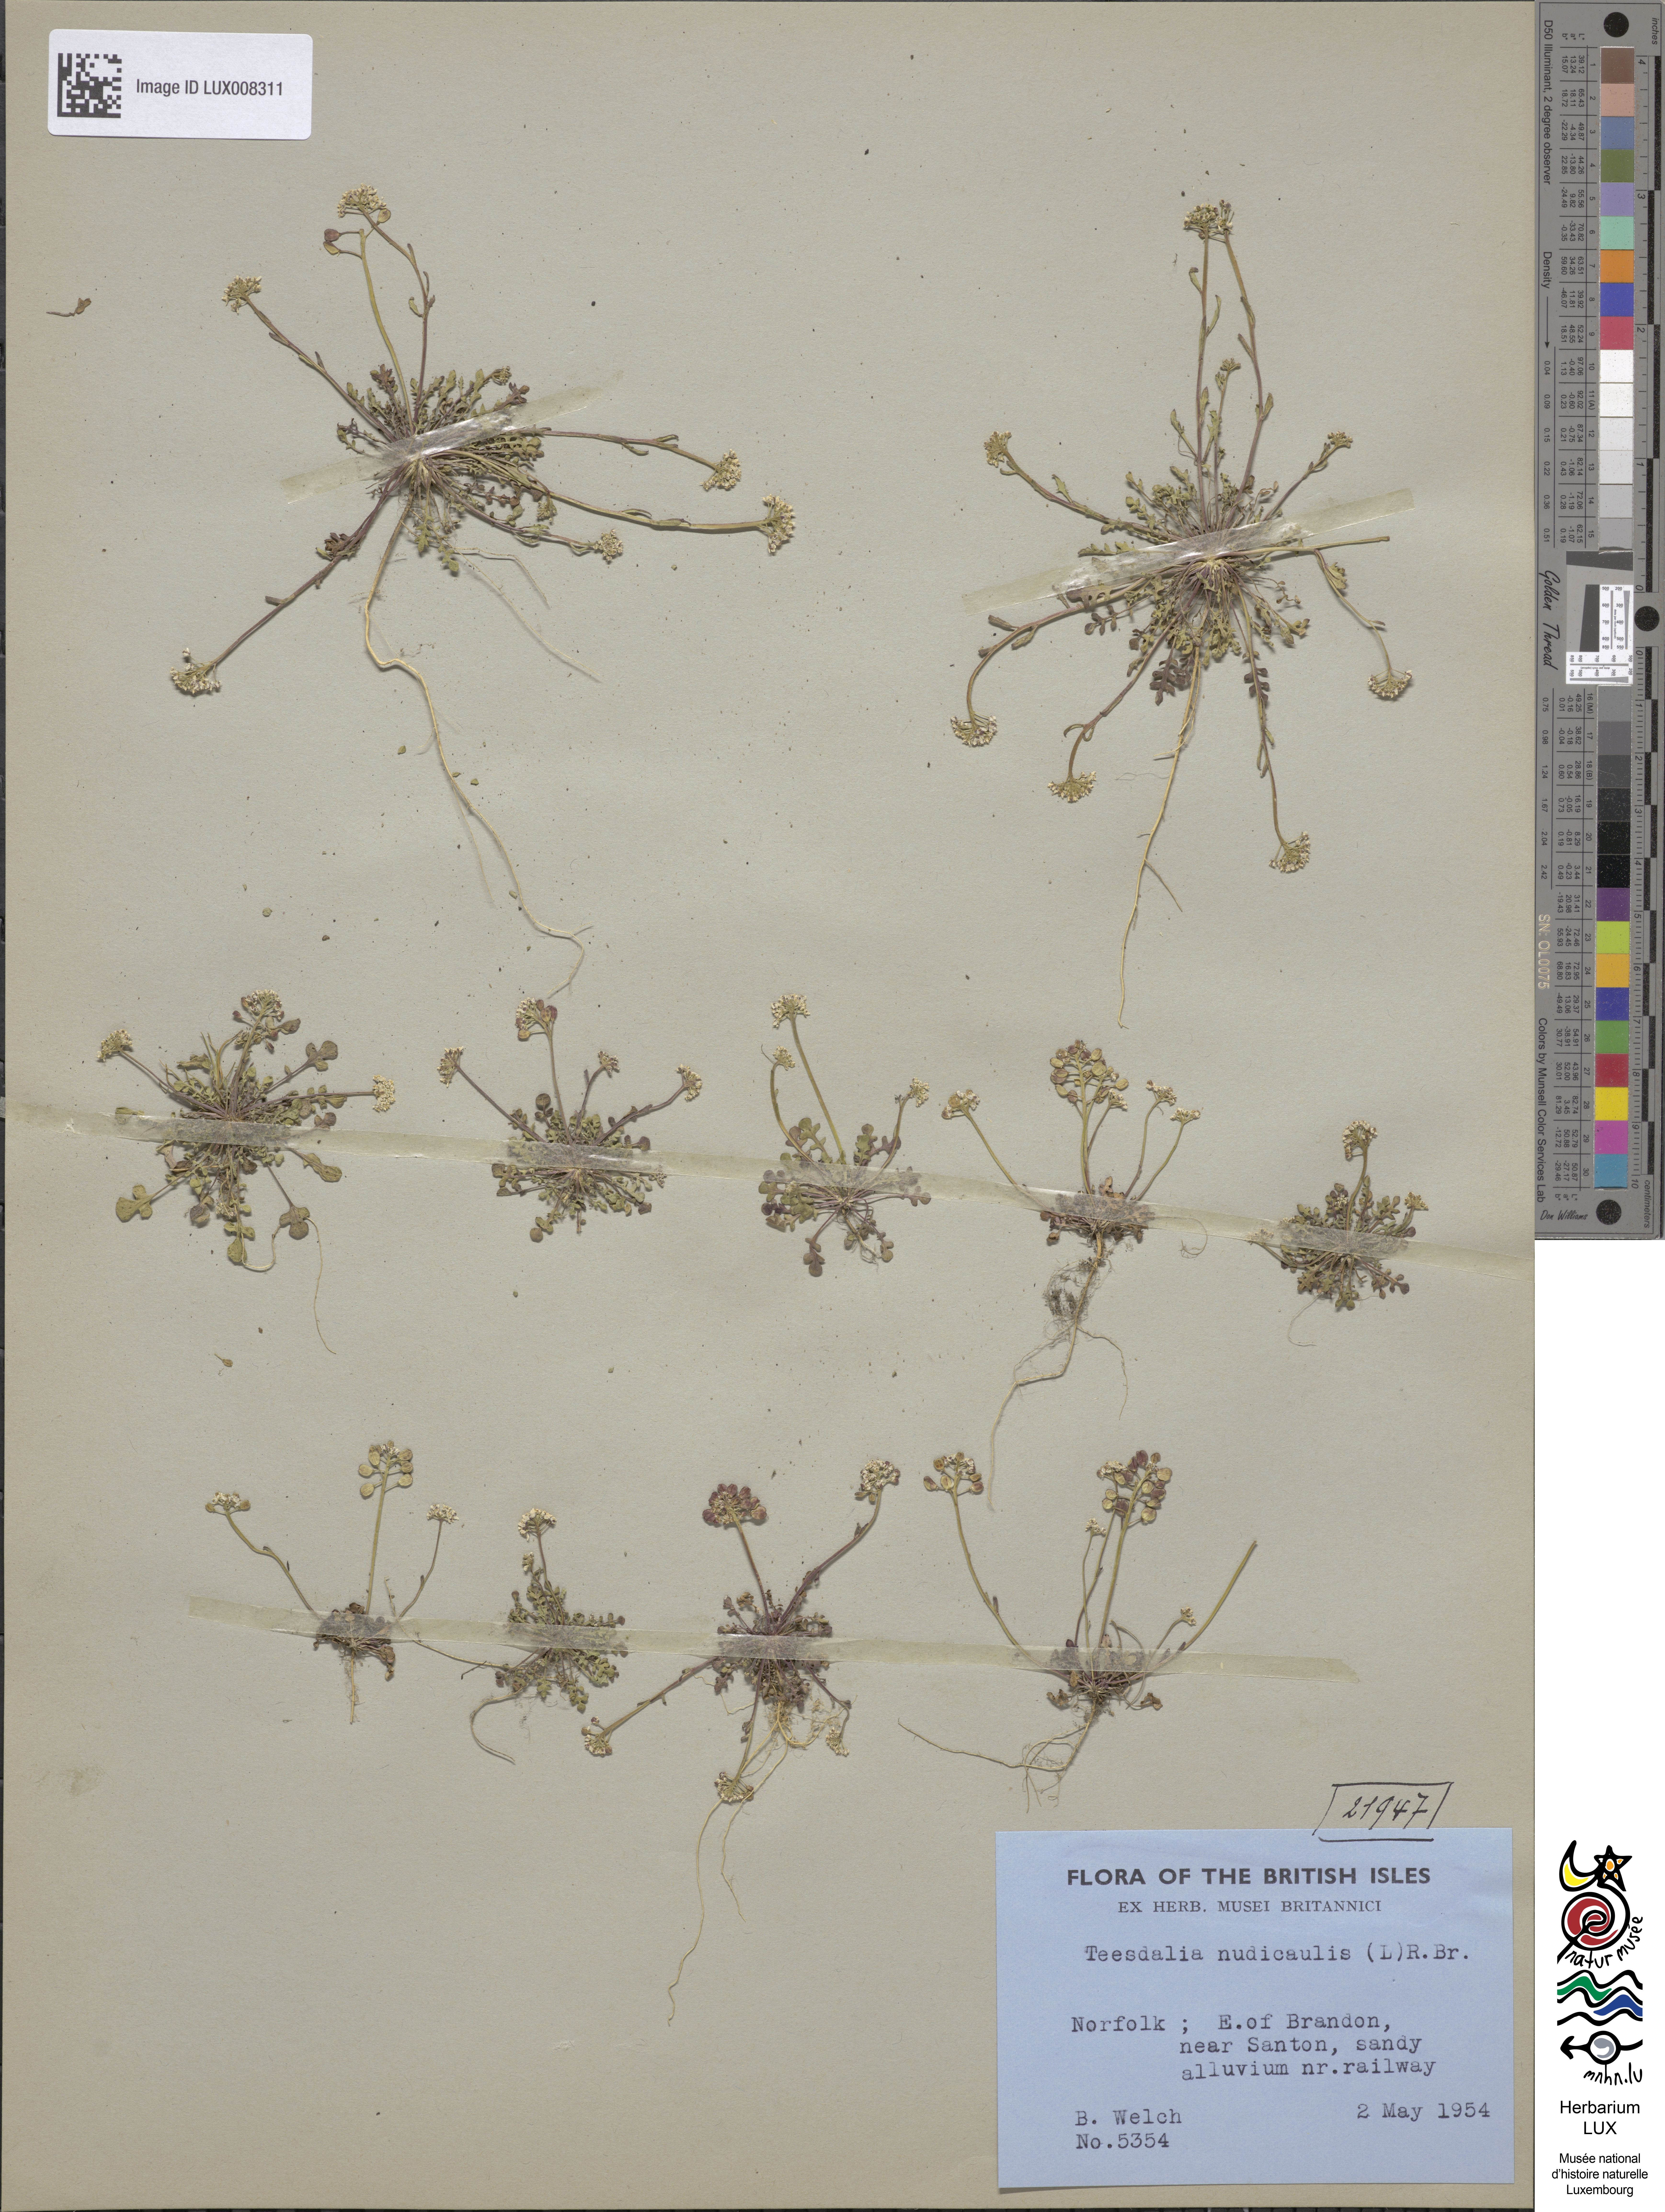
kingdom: Plantae
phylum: Tracheophyta
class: Magnoliopsida
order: Brassicales
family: Brassicaceae
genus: Teesdalia
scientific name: Teesdalia nudicaulis
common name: Shepherd's cress
